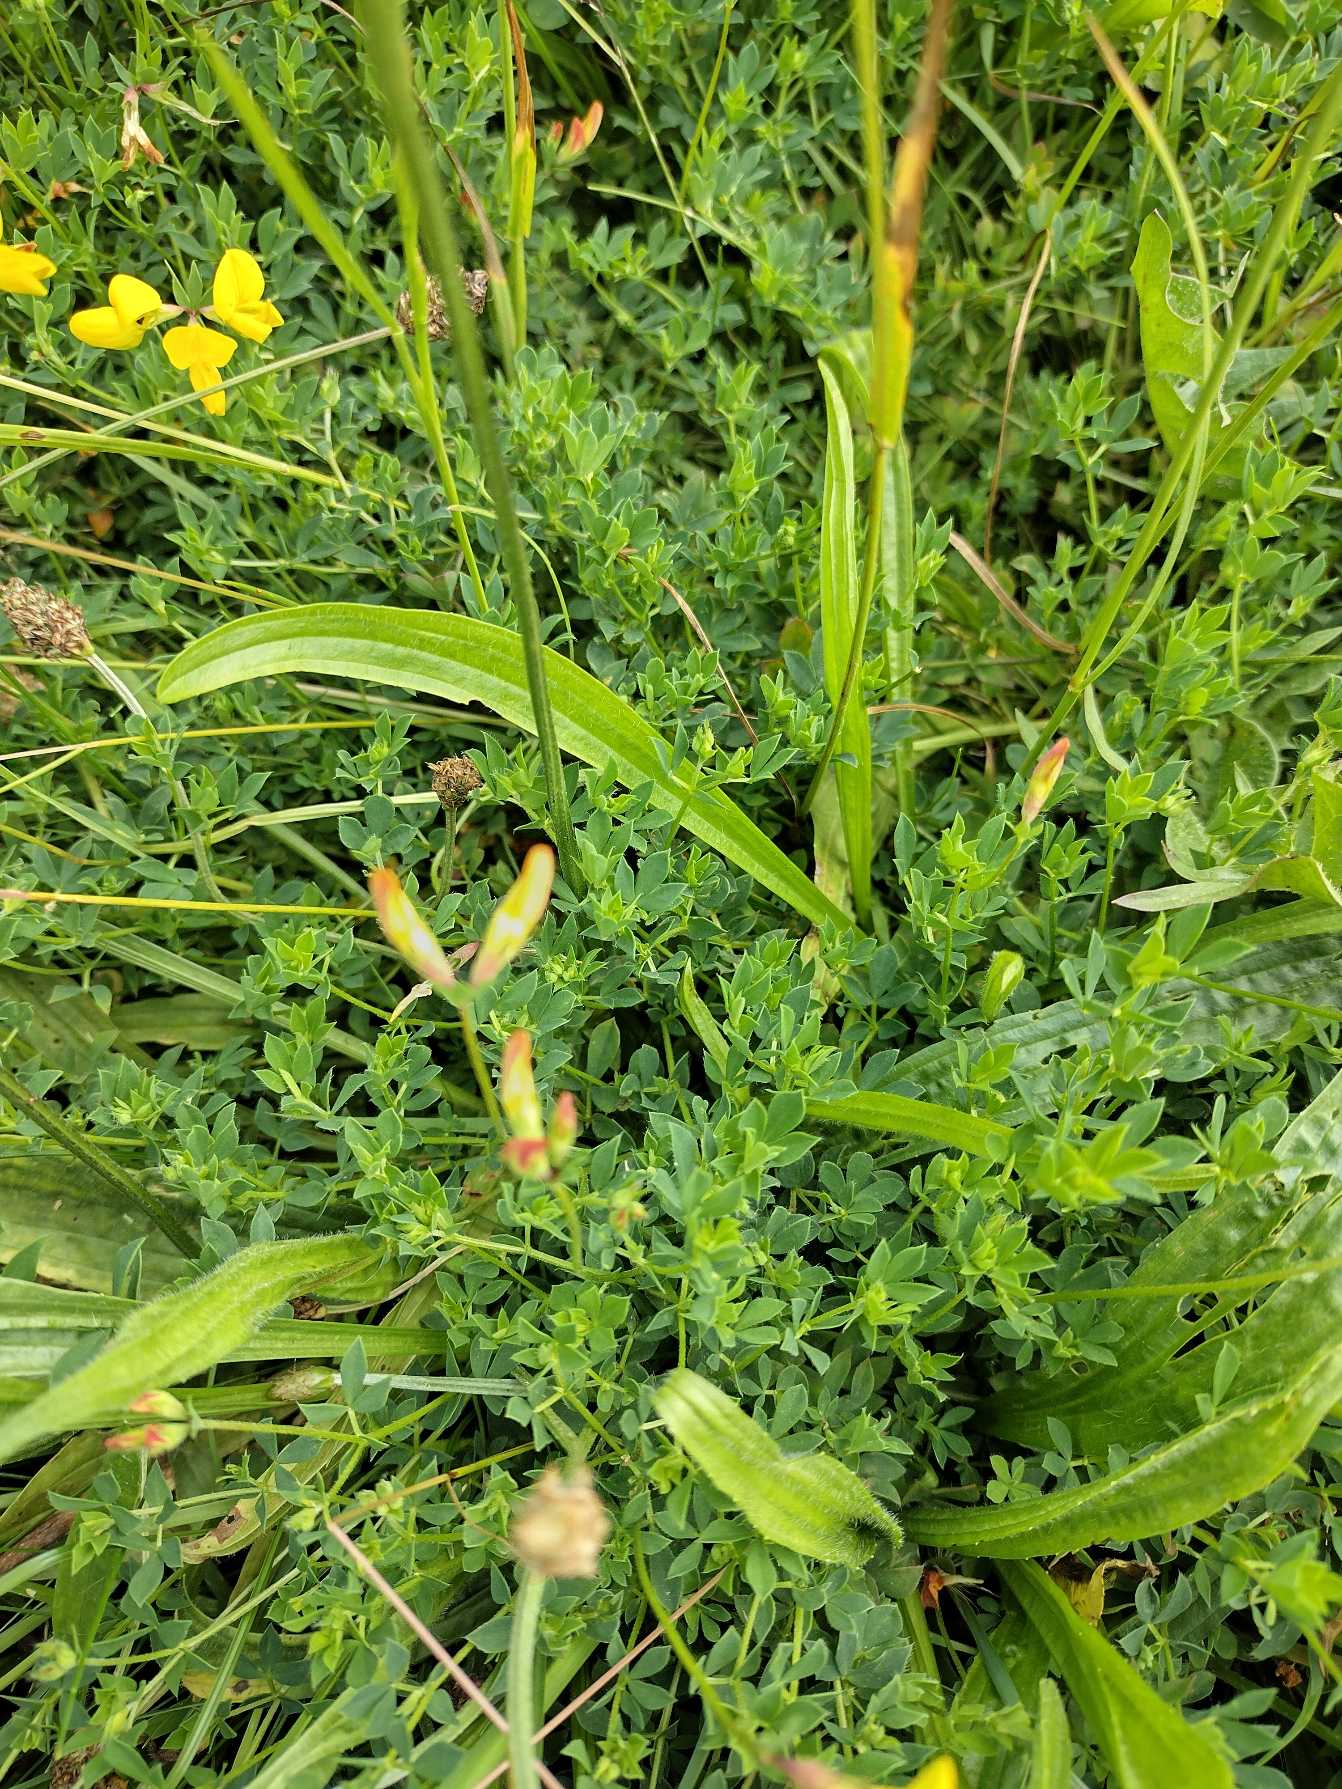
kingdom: Plantae
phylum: Tracheophyta
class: Magnoliopsida
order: Fabales
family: Fabaceae
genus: Lotus
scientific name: Lotus corniculatus
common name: Almindelig kællingetand
